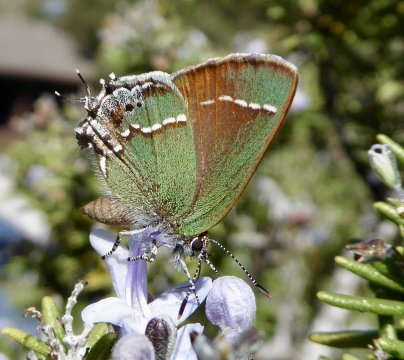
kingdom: Animalia
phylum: Arthropoda
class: Insecta
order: Lepidoptera
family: Lycaenidae
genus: Mitoura
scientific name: Mitoura gryneus
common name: Juniper Hairstreak
